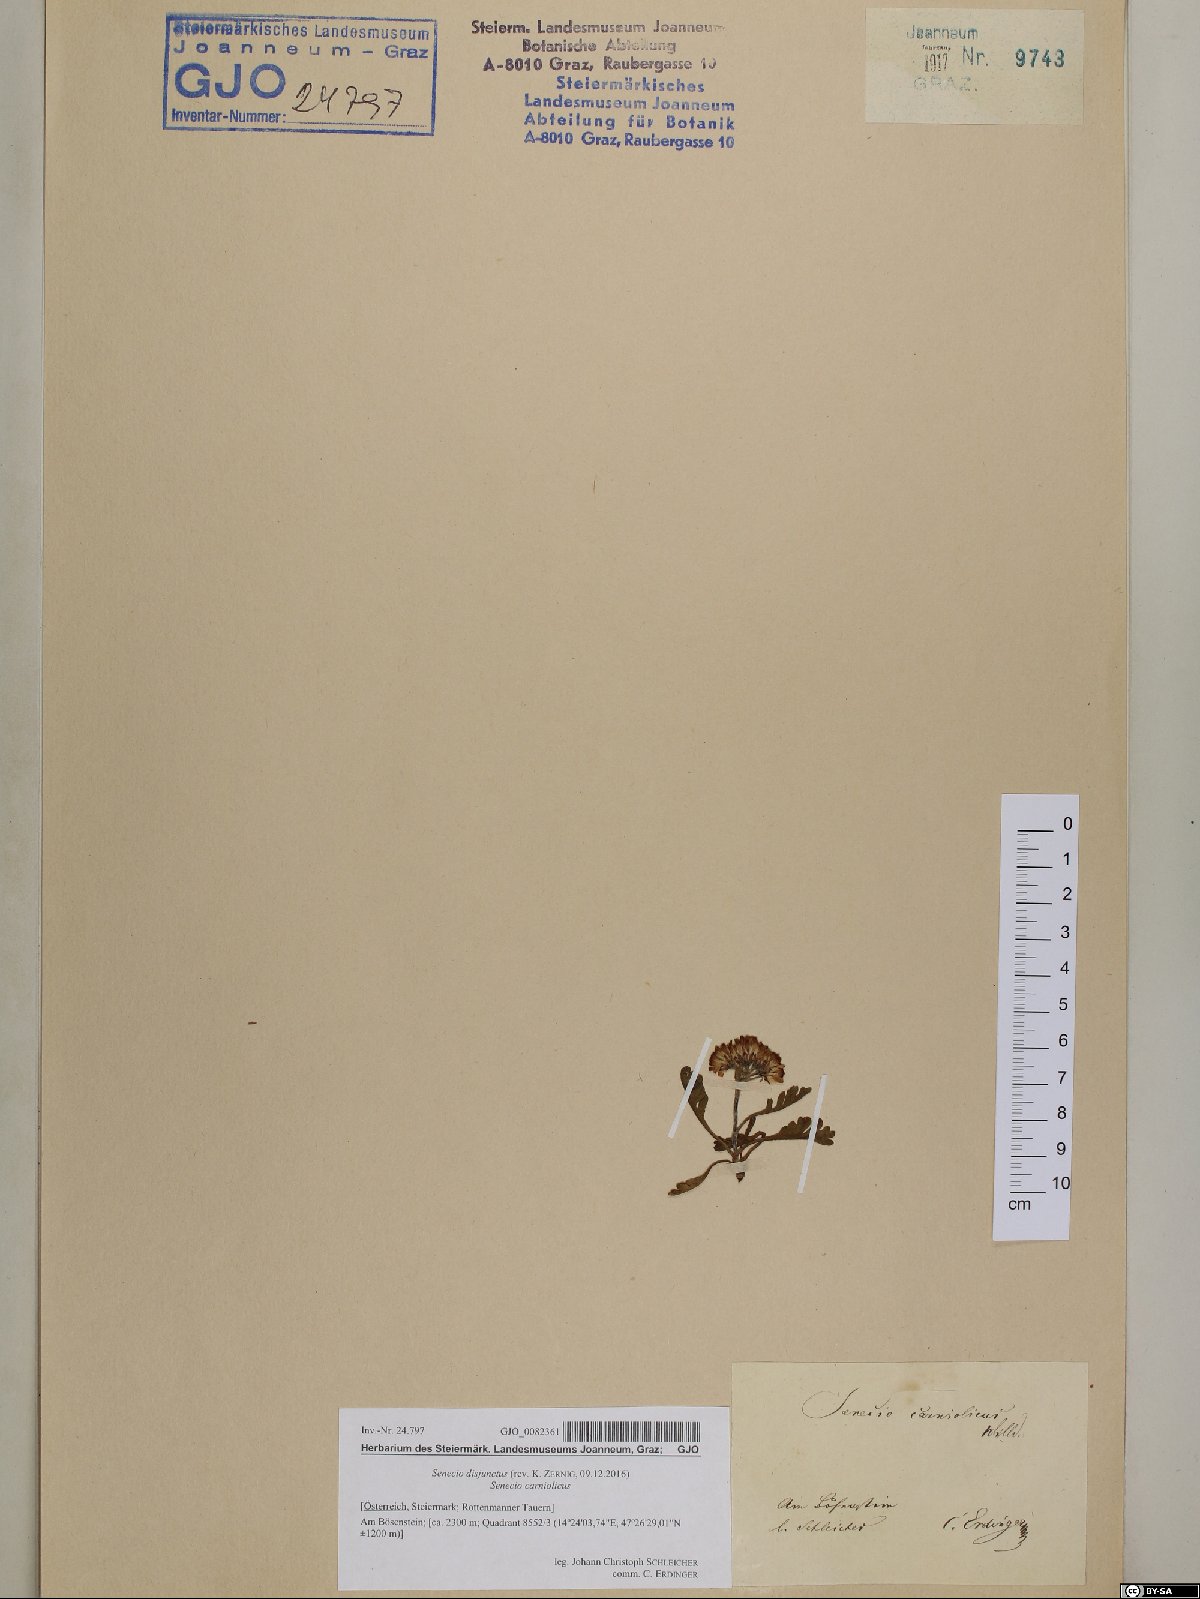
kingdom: Plantae
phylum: Tracheophyta
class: Magnoliopsida
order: Asterales
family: Asteraceae
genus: Jacobaea
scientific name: Jacobaea disjuncta
